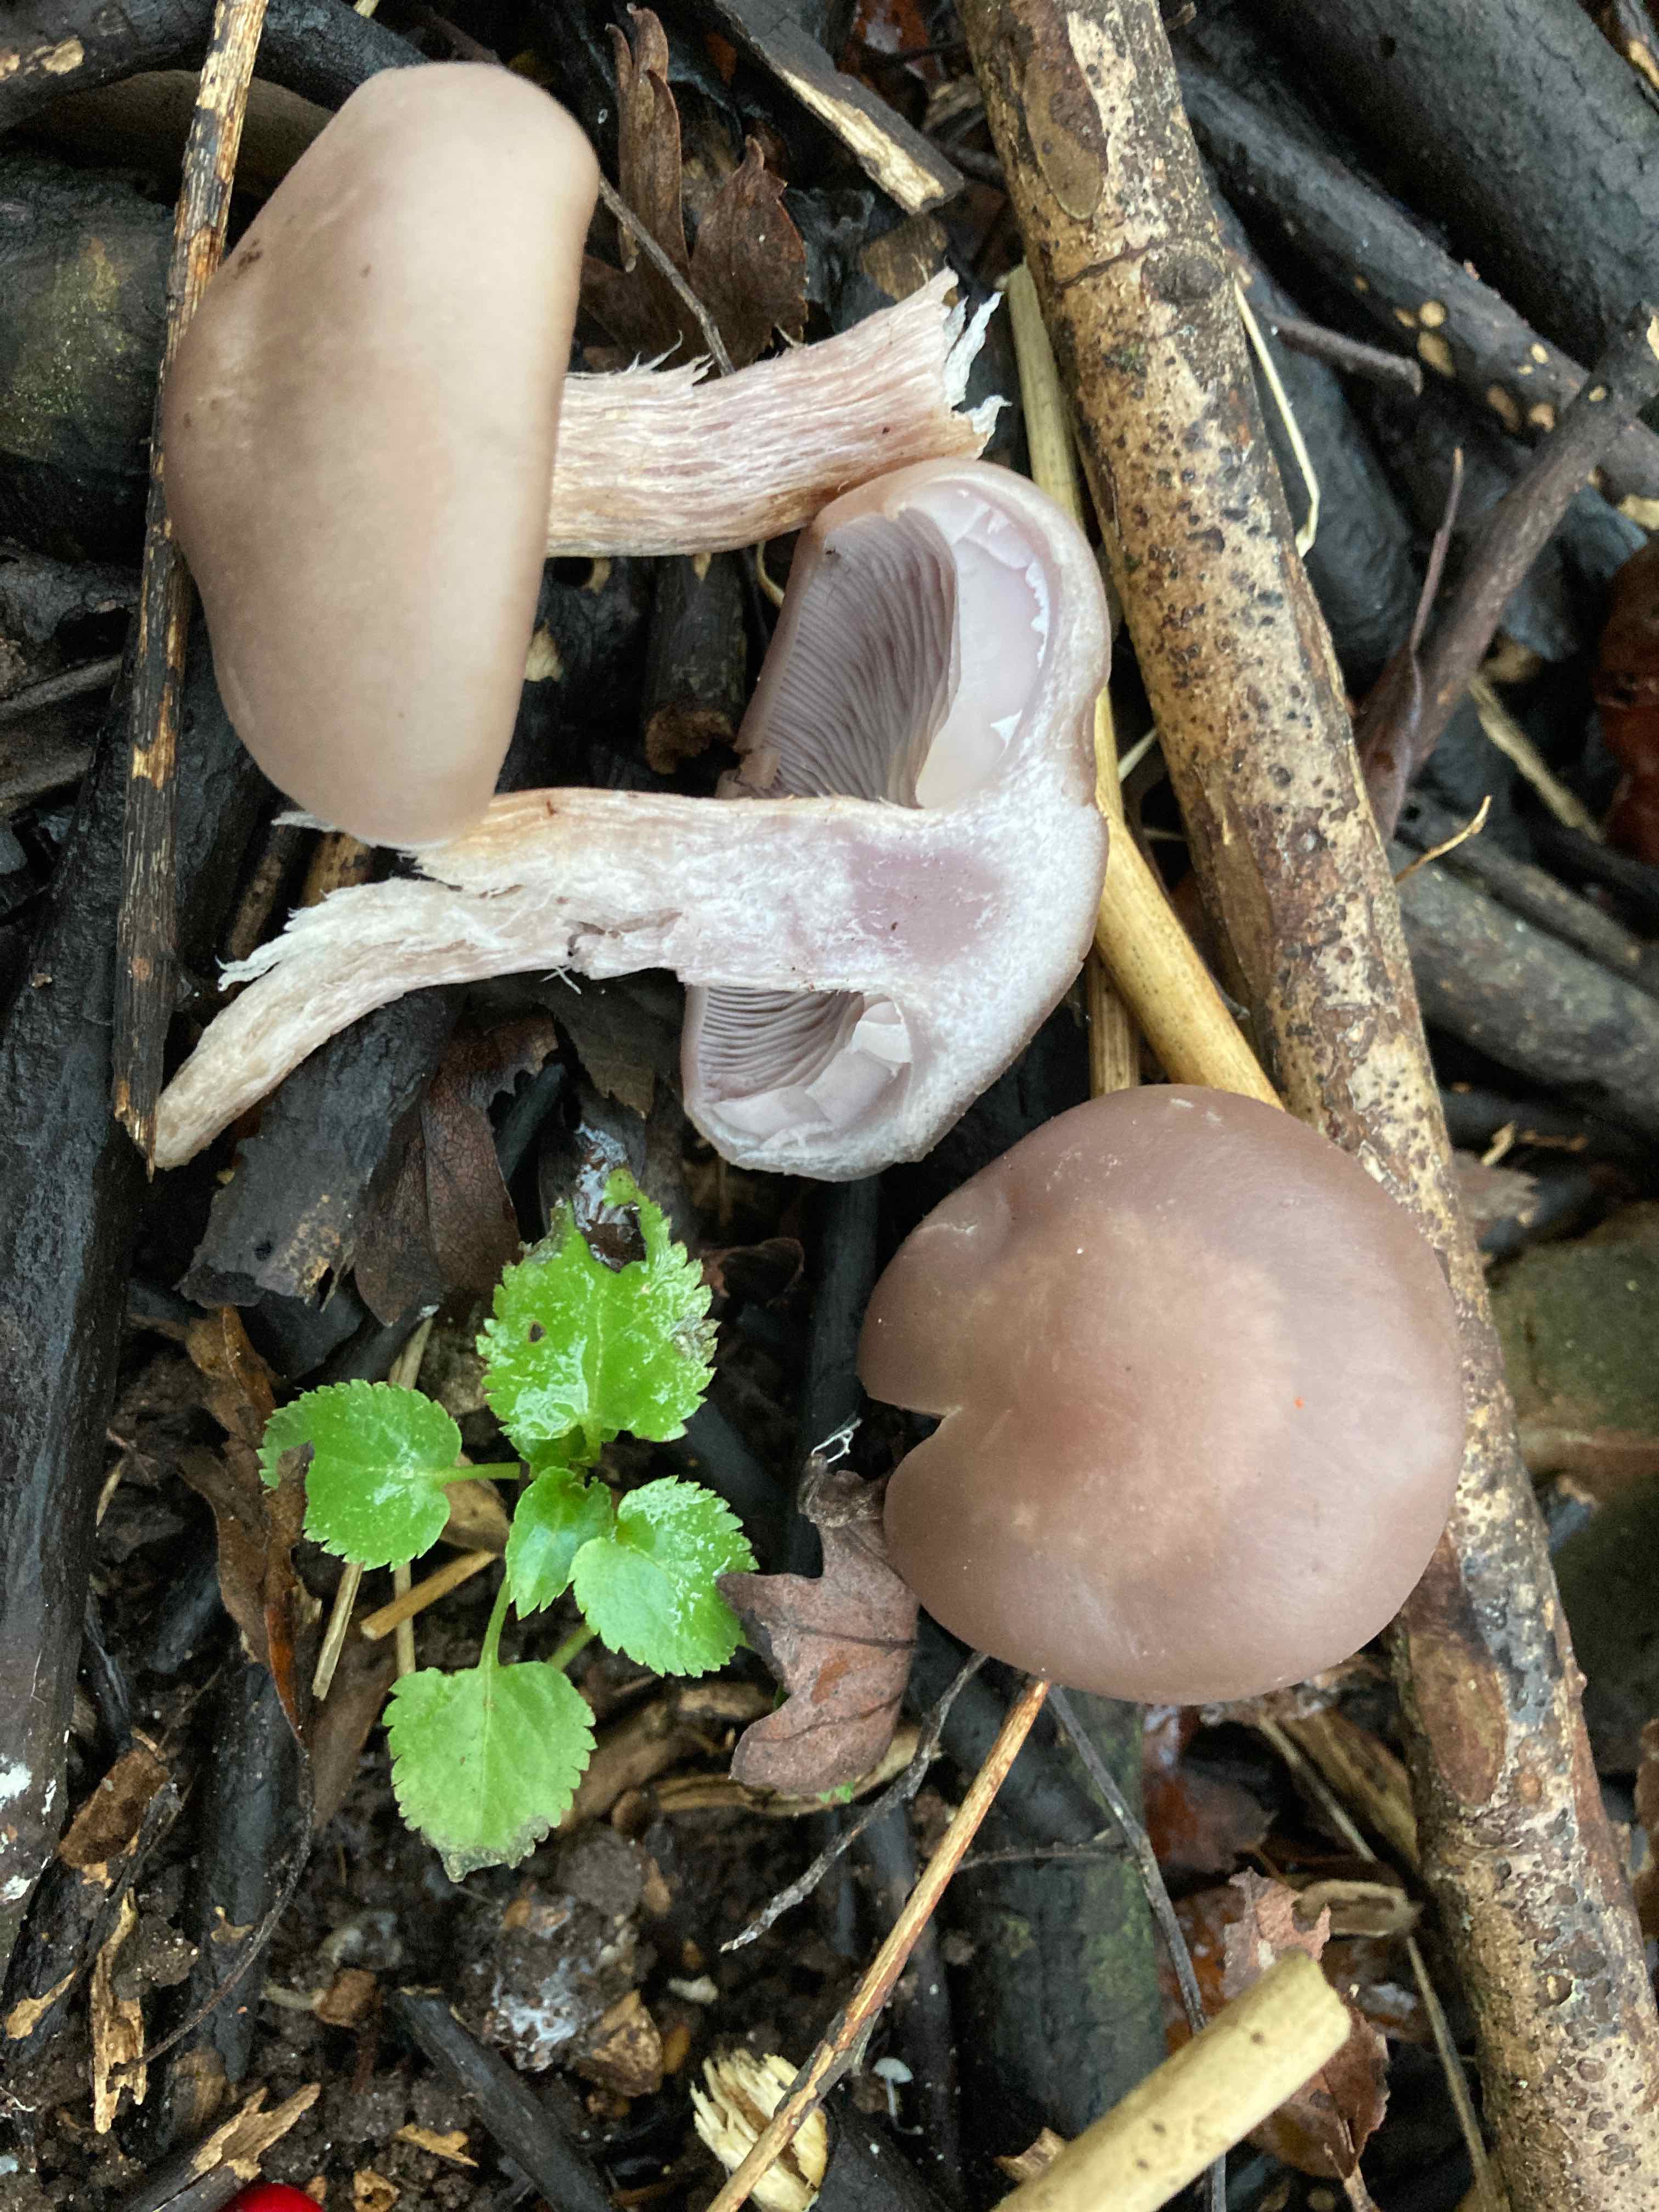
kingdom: Fungi
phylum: Basidiomycota
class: Agaricomycetes
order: Agaricales
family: Tricholomataceae
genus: Lepista
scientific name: Lepista nuda
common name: violet hekseringshat
